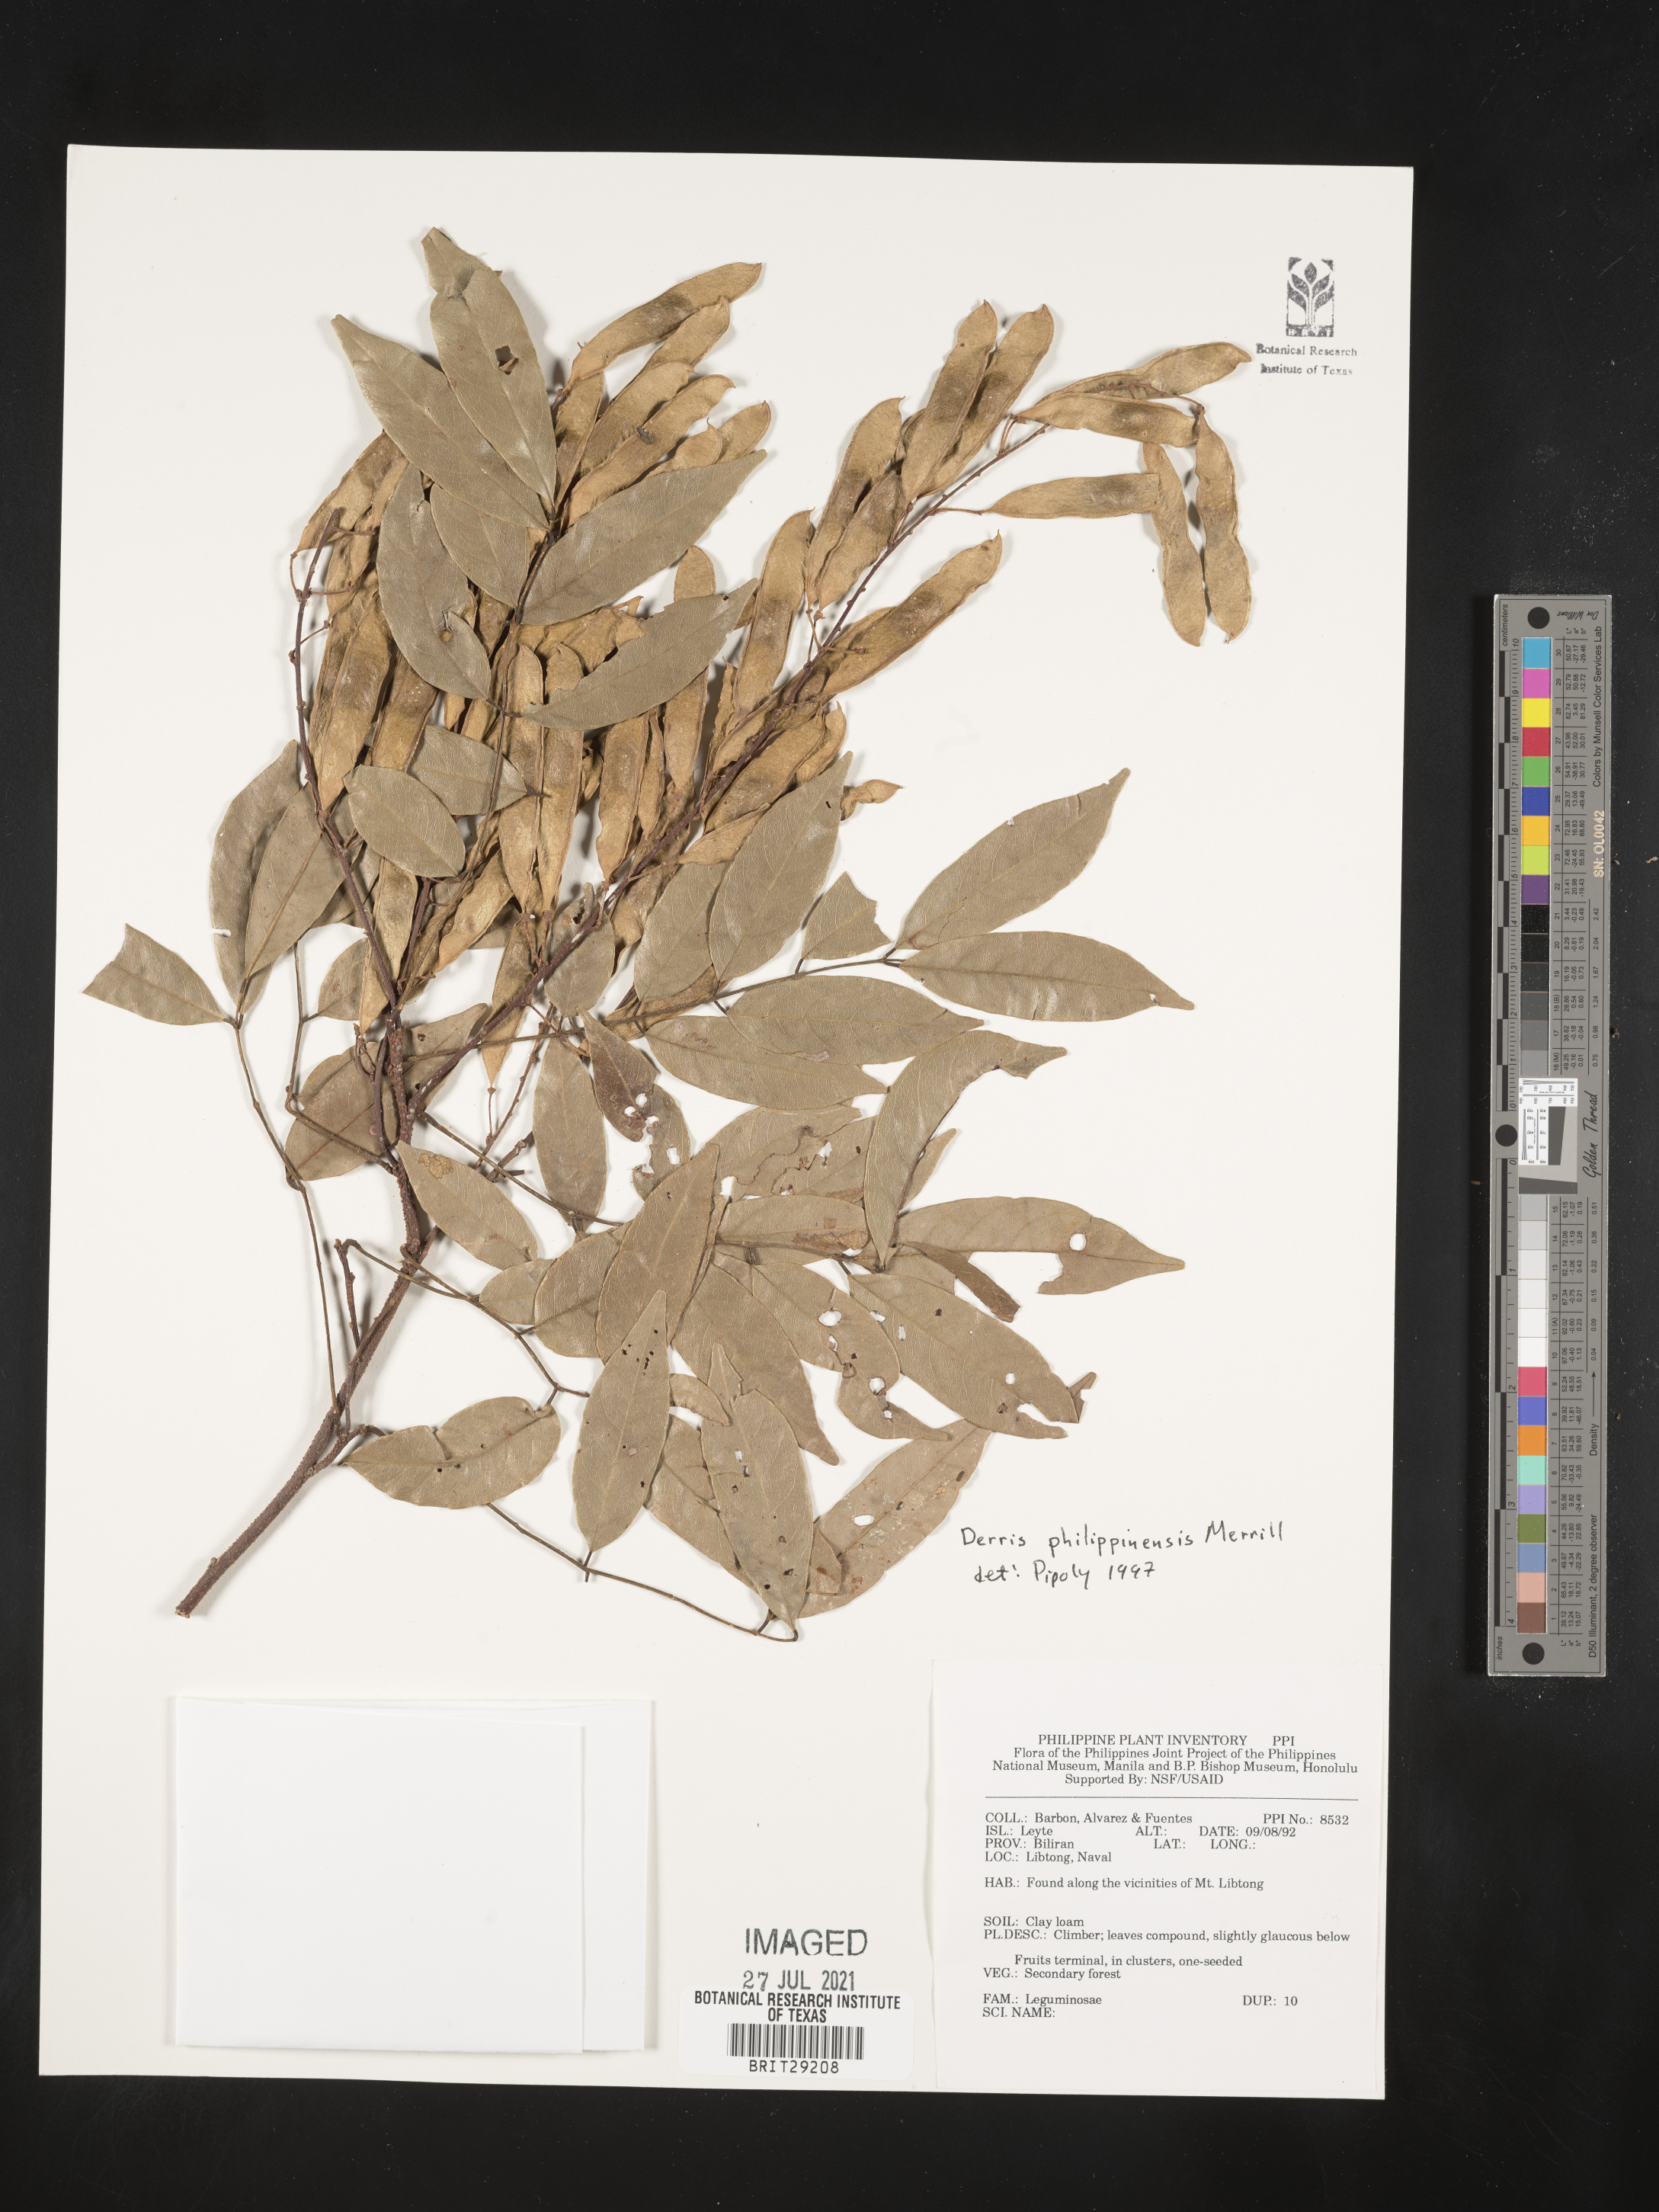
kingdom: Plantae
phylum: Tracheophyta
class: Magnoliopsida
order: Fabales
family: Fabaceae
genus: Brachypterum
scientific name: Brachypterum philippinense
